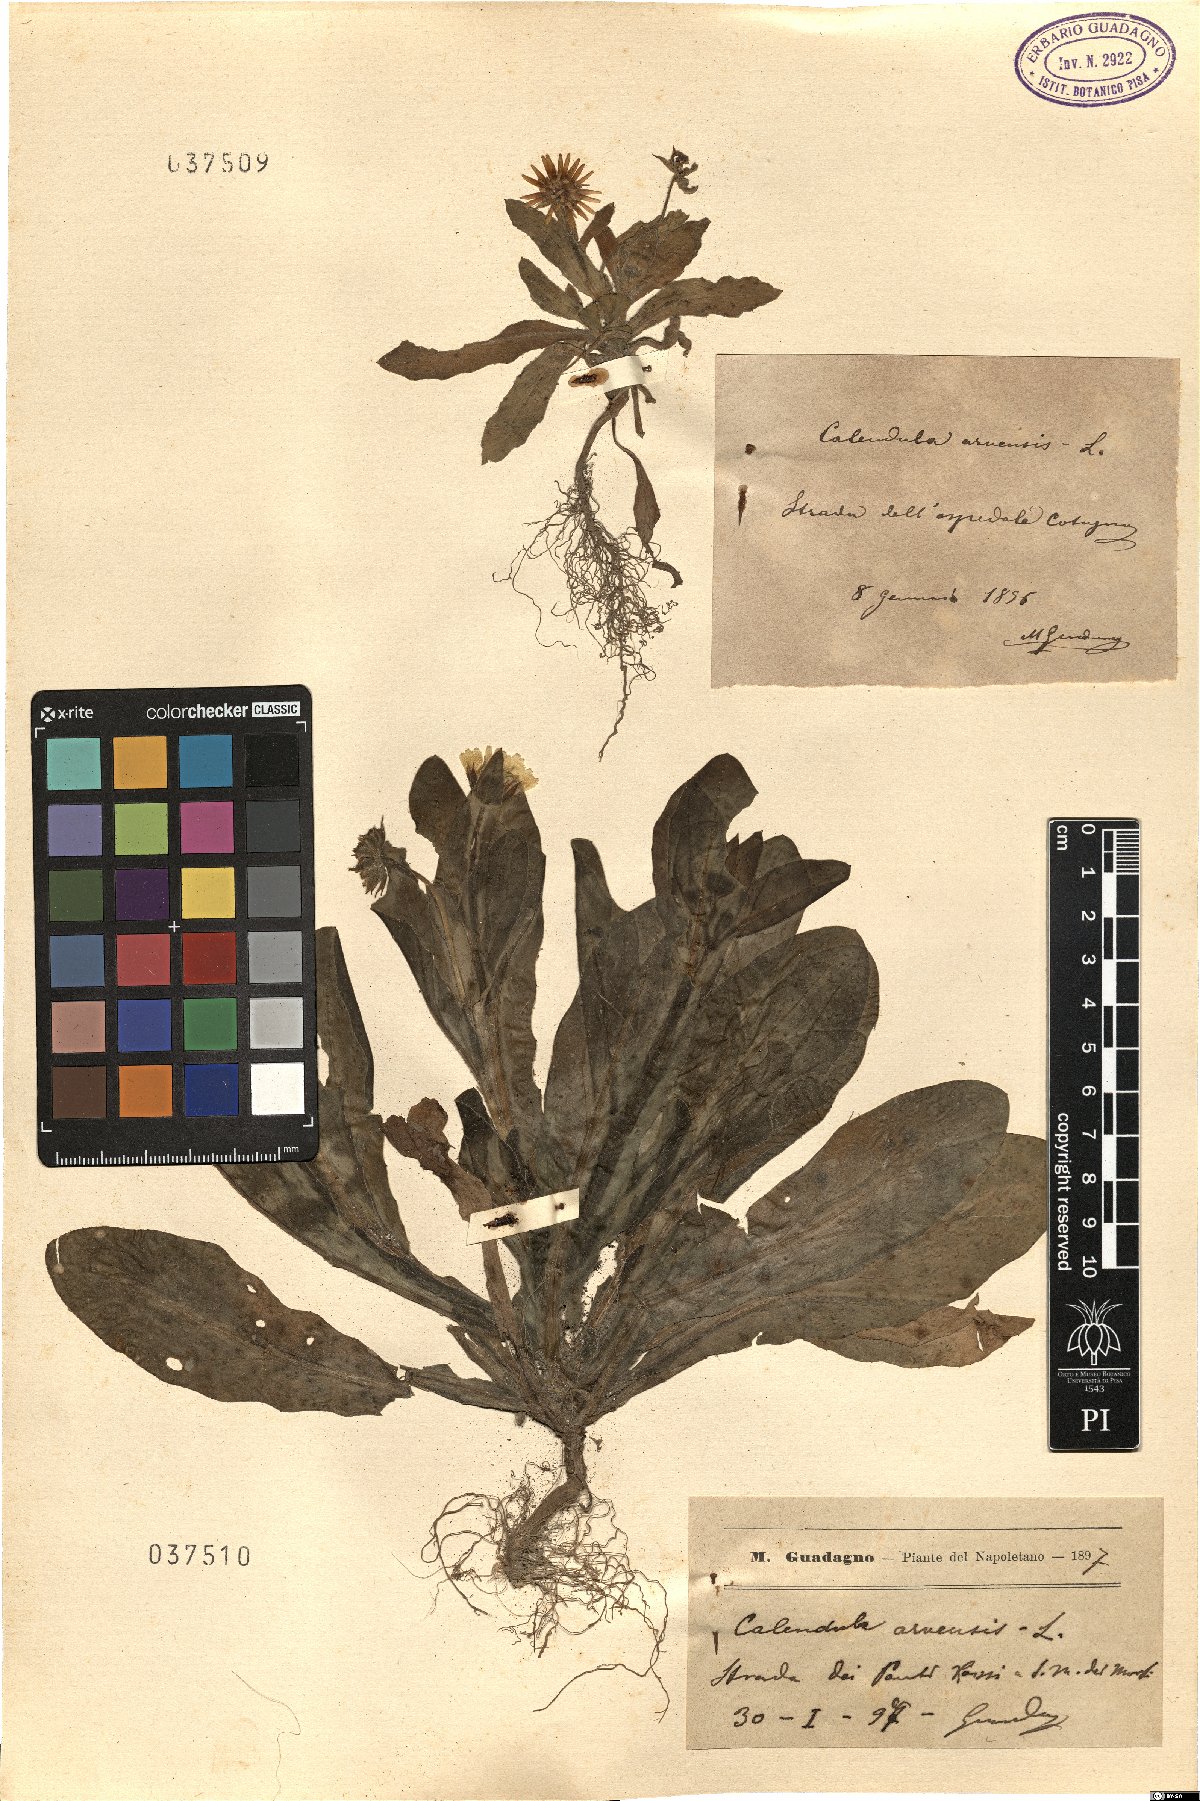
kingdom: Plantae
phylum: Tracheophyta
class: Magnoliopsida
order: Asterales
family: Asteraceae
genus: Calendula
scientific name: Calendula arvensis
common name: Field marigold
